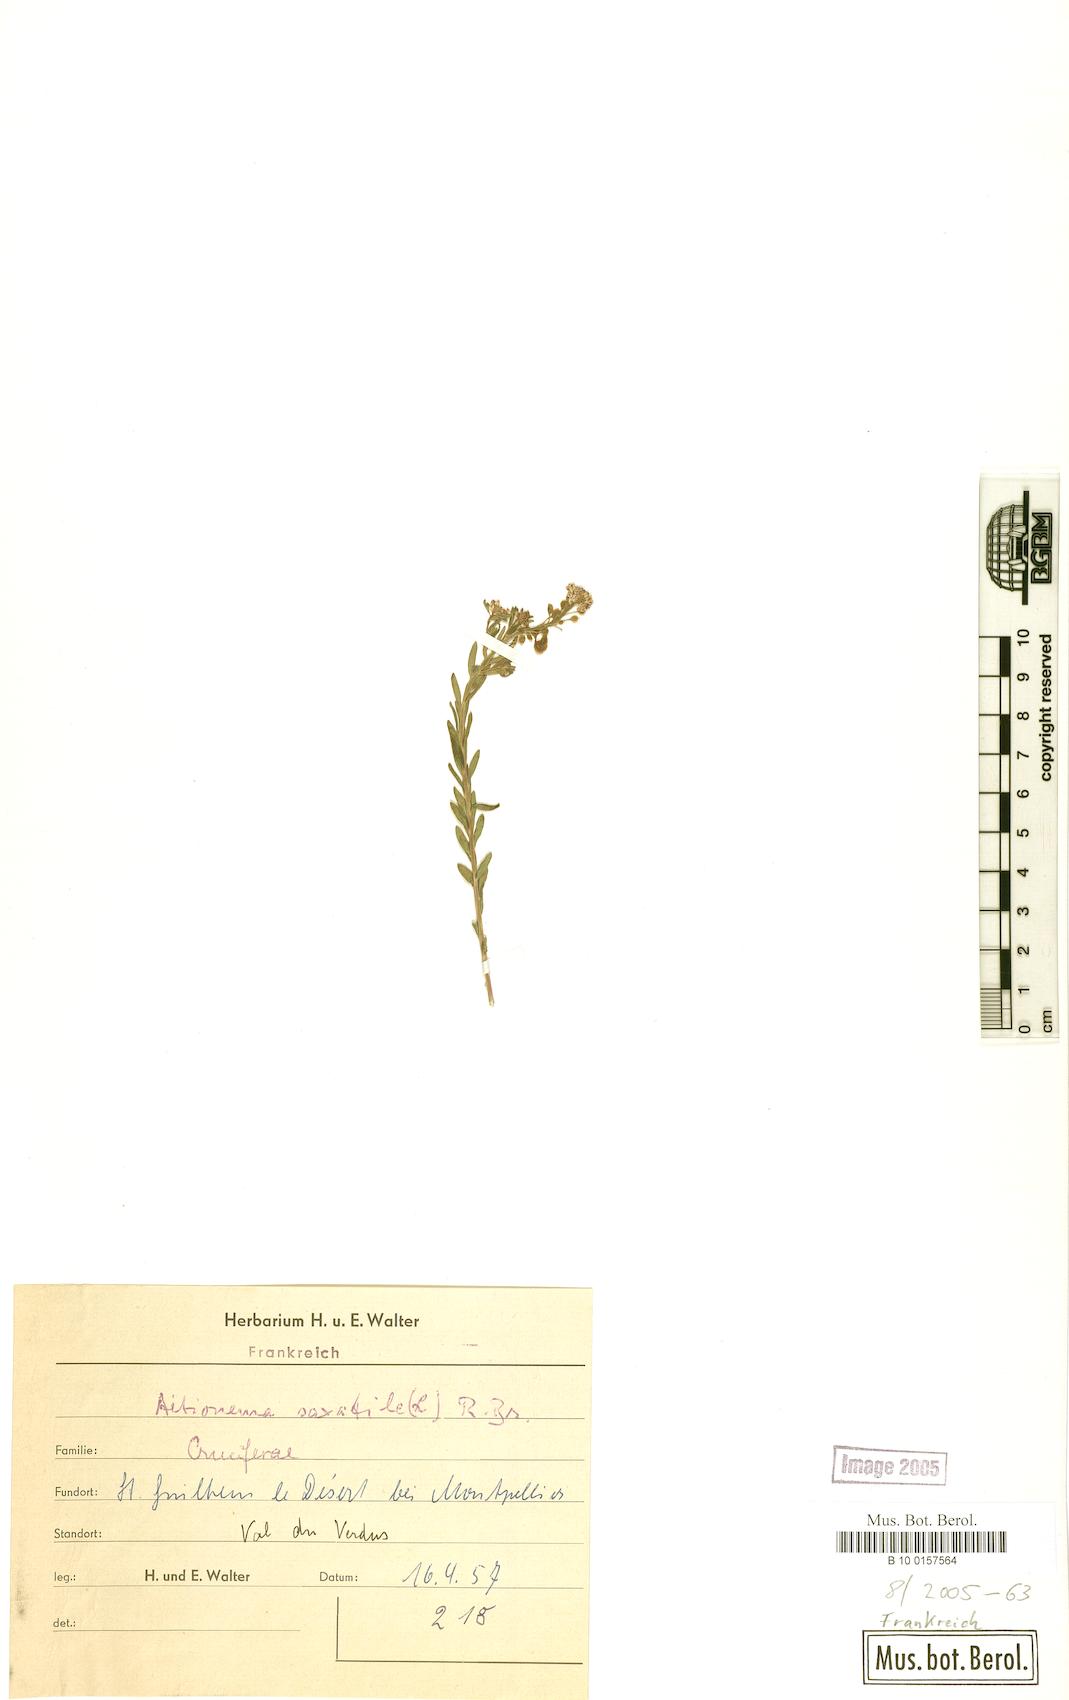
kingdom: Plantae
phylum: Tracheophyta
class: Magnoliopsida
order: Brassicales
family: Brassicaceae
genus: Aethionema
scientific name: Aethionema saxatile
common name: Burnt candytuft
